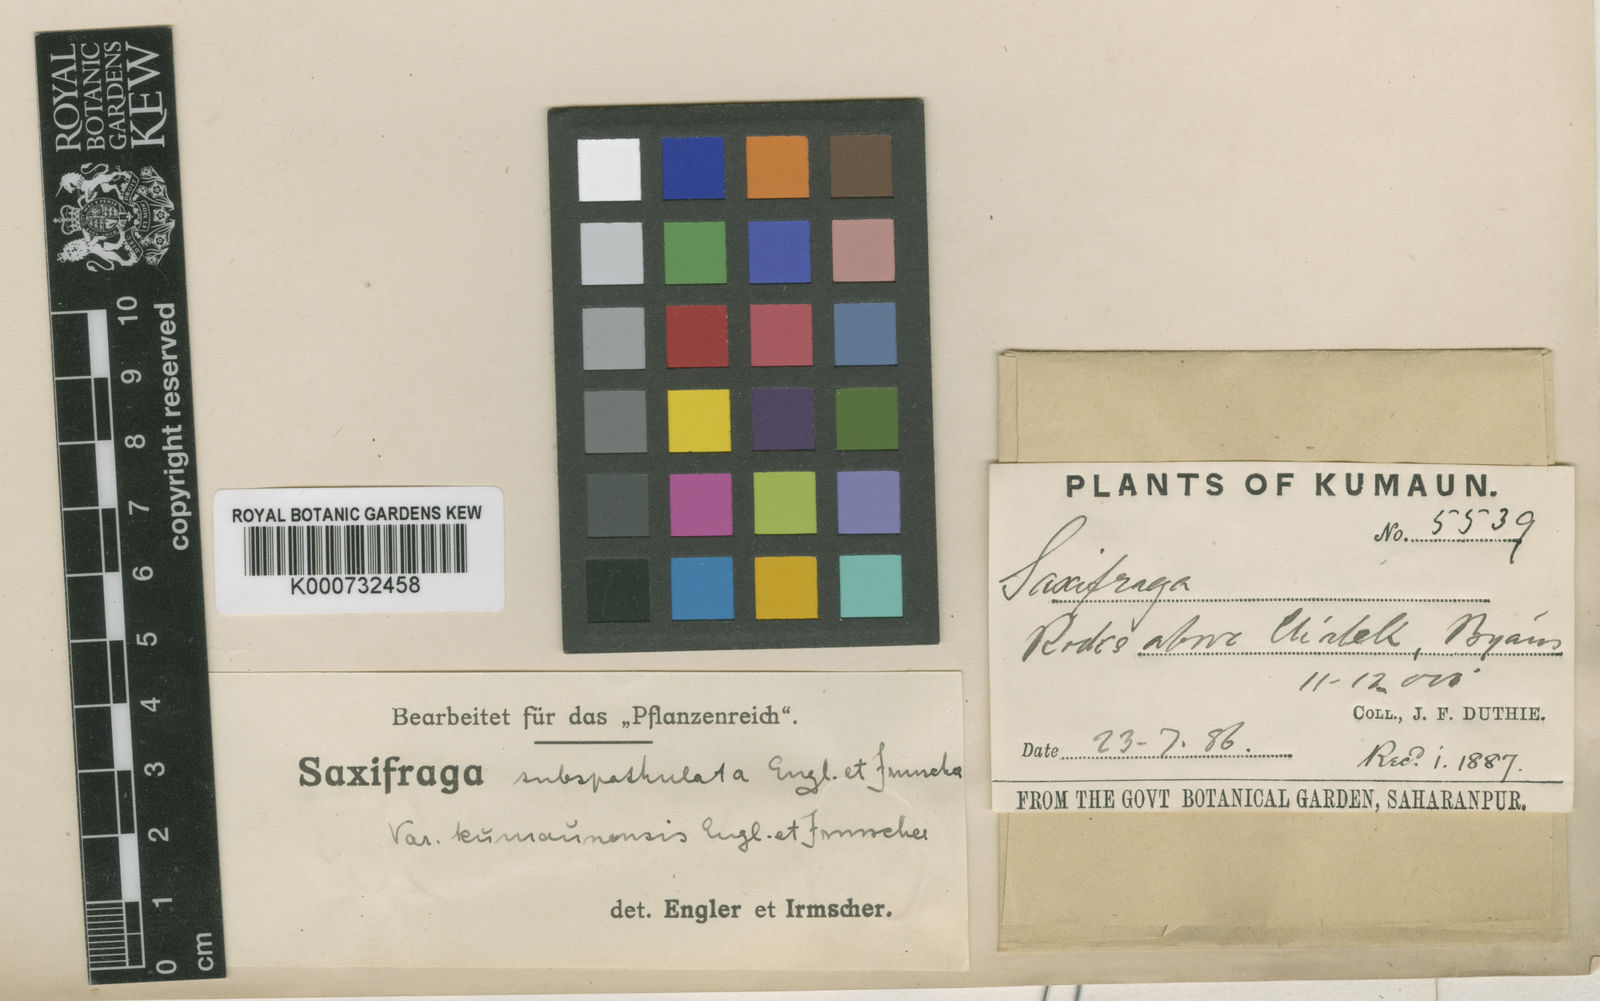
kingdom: Plantae
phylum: Tracheophyta
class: Magnoliopsida
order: Saxifragales
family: Saxifragaceae
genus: Saxifraga
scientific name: Saxifraga subspathulata
